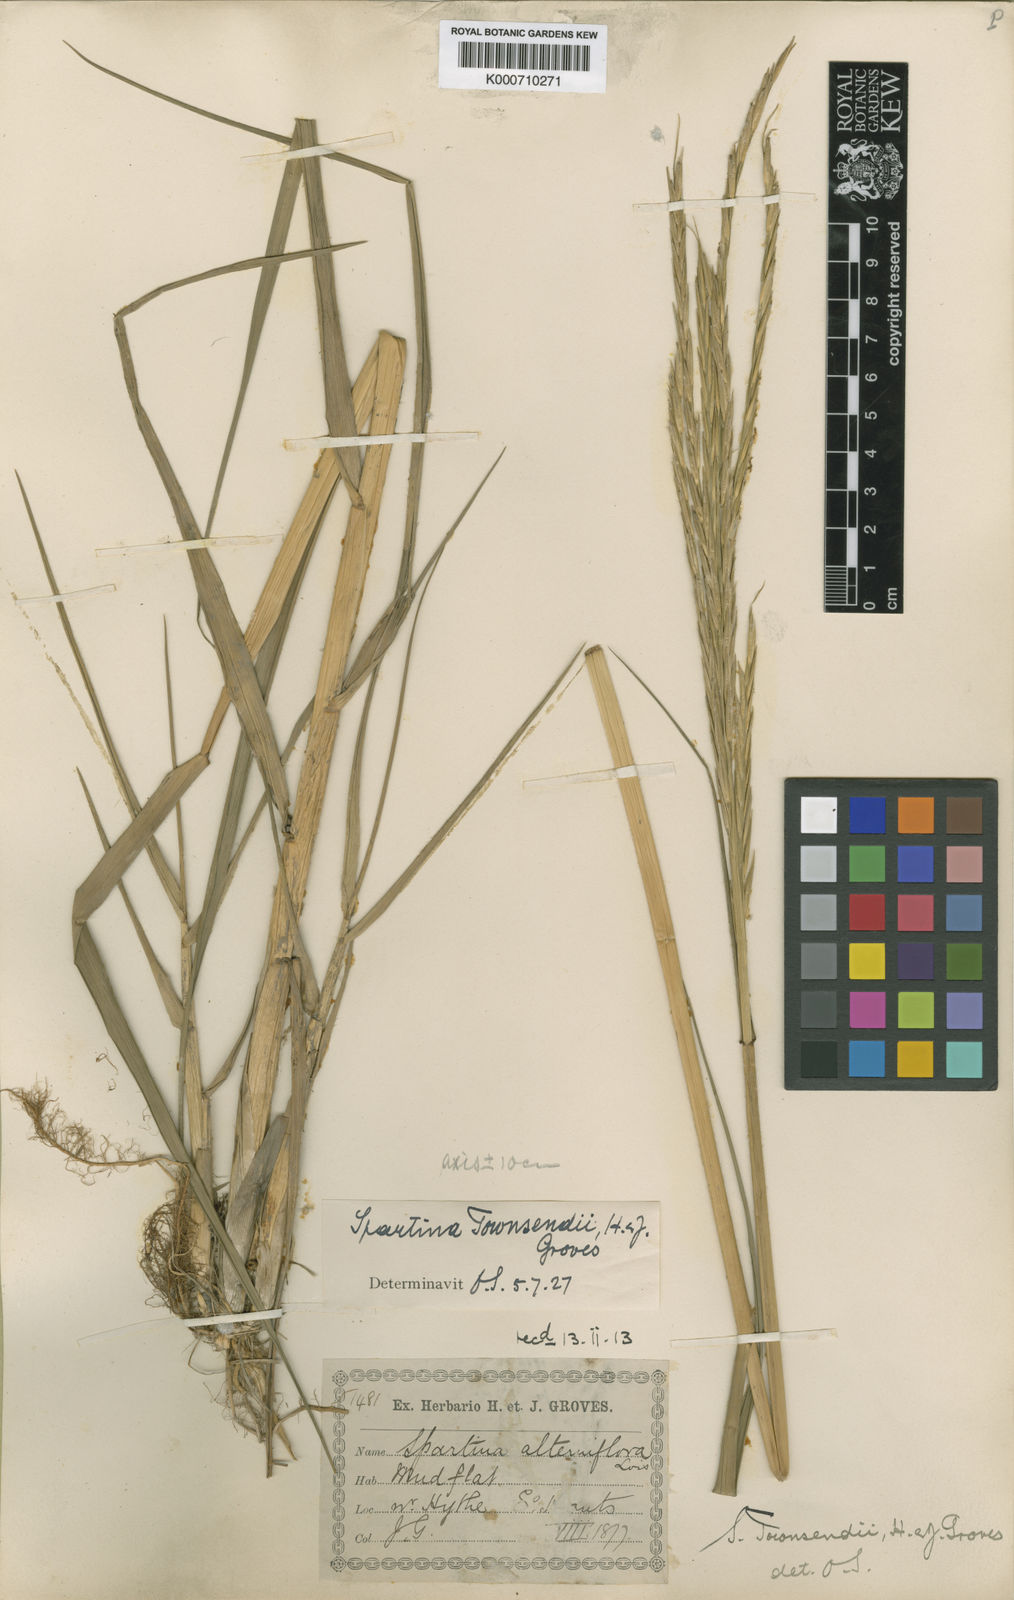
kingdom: Plantae
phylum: Tracheophyta
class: Liliopsida
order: Poales
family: Poaceae
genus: Sporobolus
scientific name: Sporobolus townsendii
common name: Townsend's cordgrass
